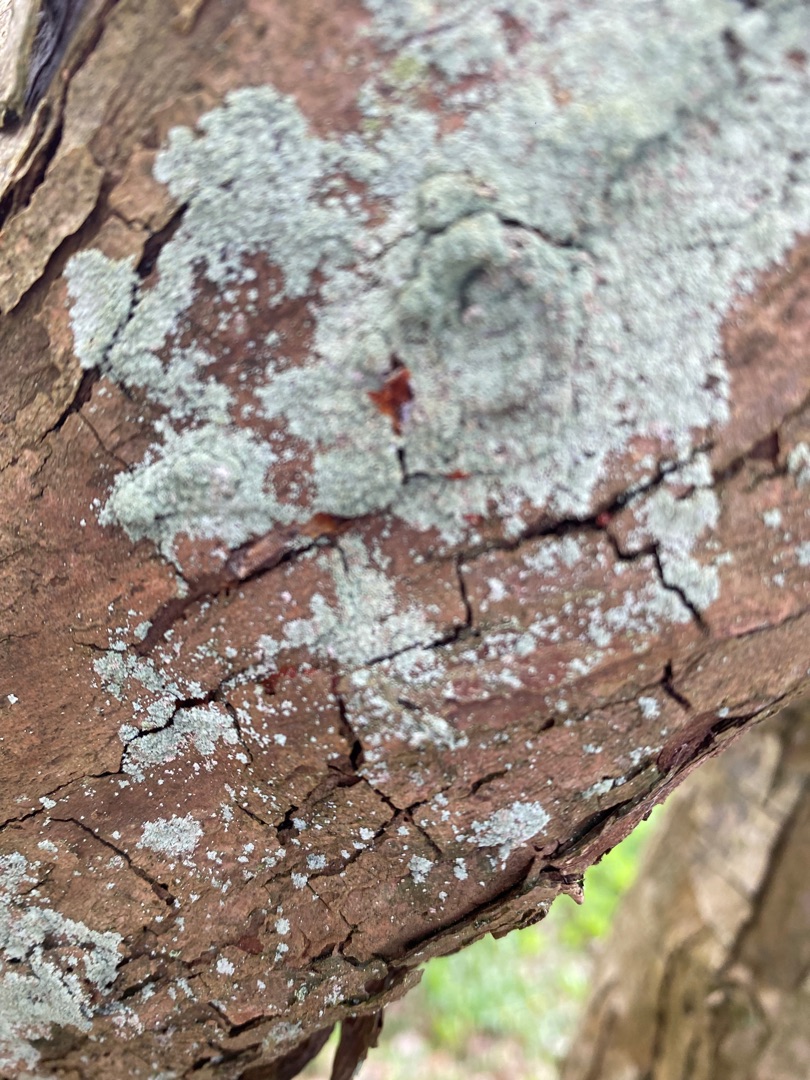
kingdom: Fungi
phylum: Ascomycota
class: Lecanoromycetes
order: Lecanorales
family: Stereocaulaceae
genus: Lepraria
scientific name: Lepraria incana
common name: Almindelig støvlav
